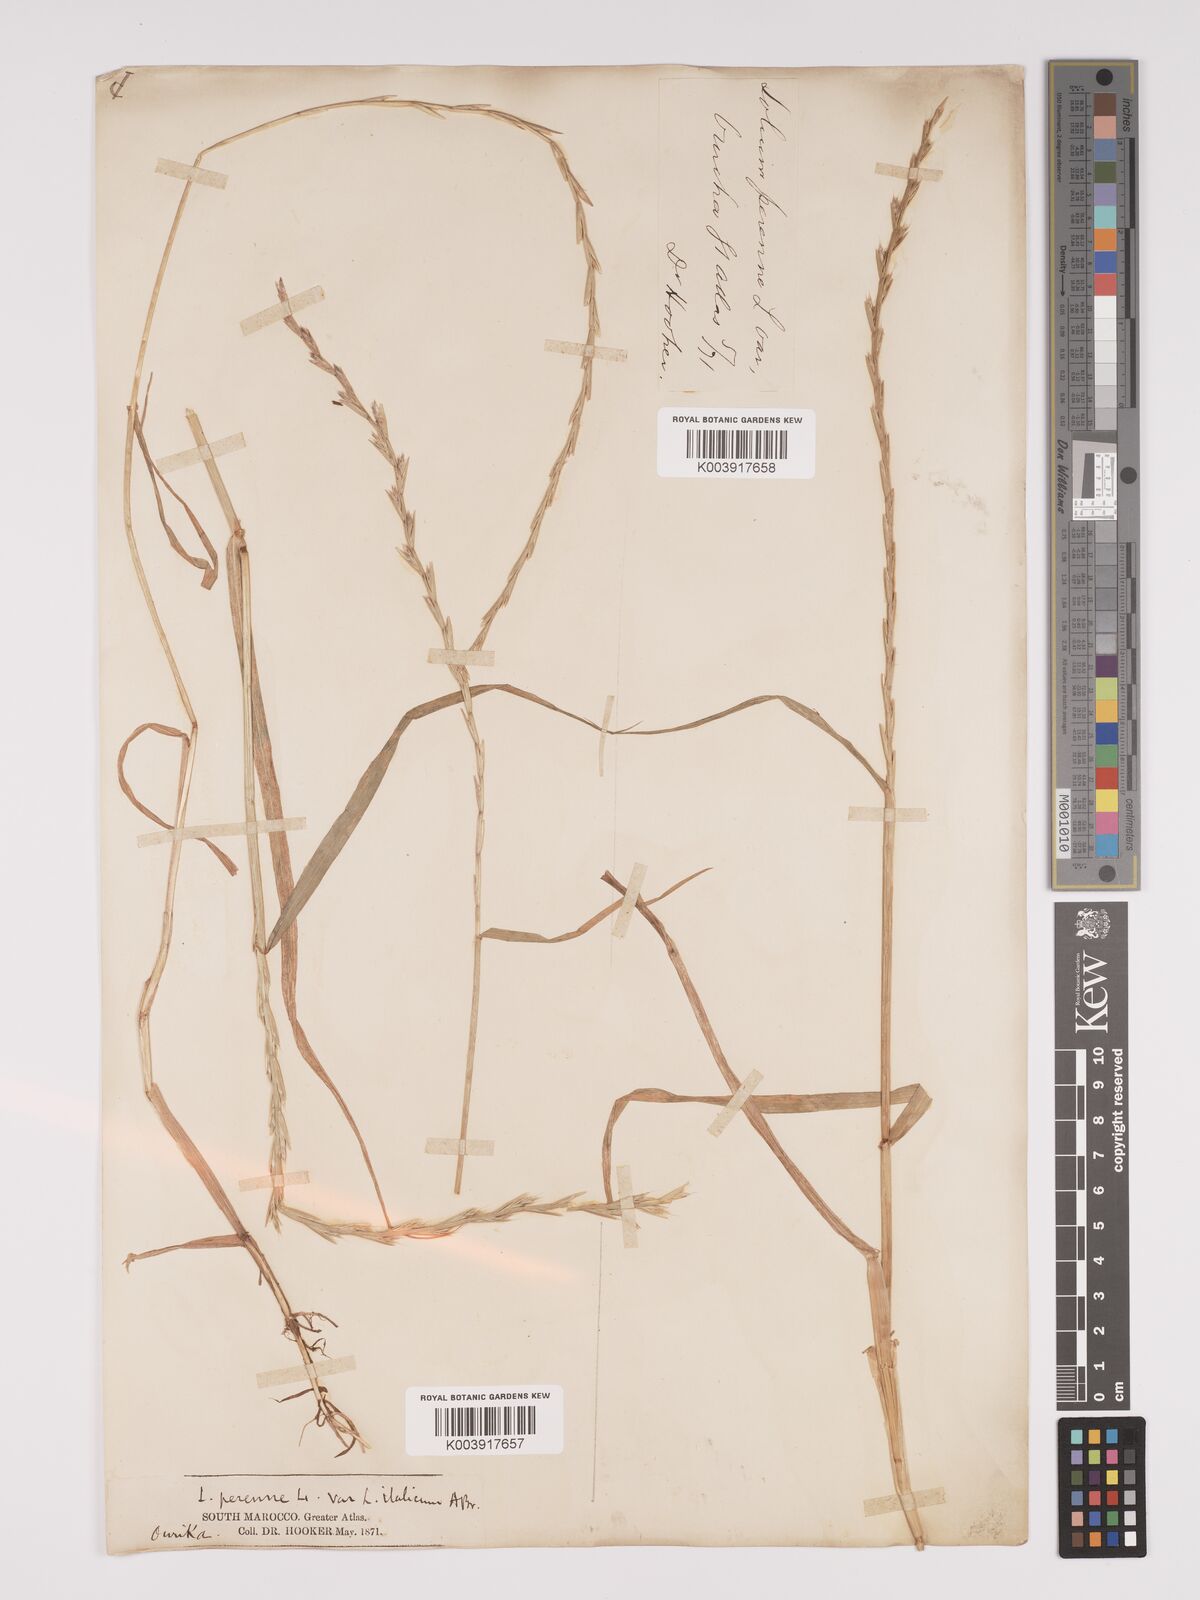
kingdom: Plantae
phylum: Tracheophyta
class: Liliopsida
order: Poales
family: Poaceae
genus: Lolium
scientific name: Lolium multiflorum
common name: Annual ryegrass
